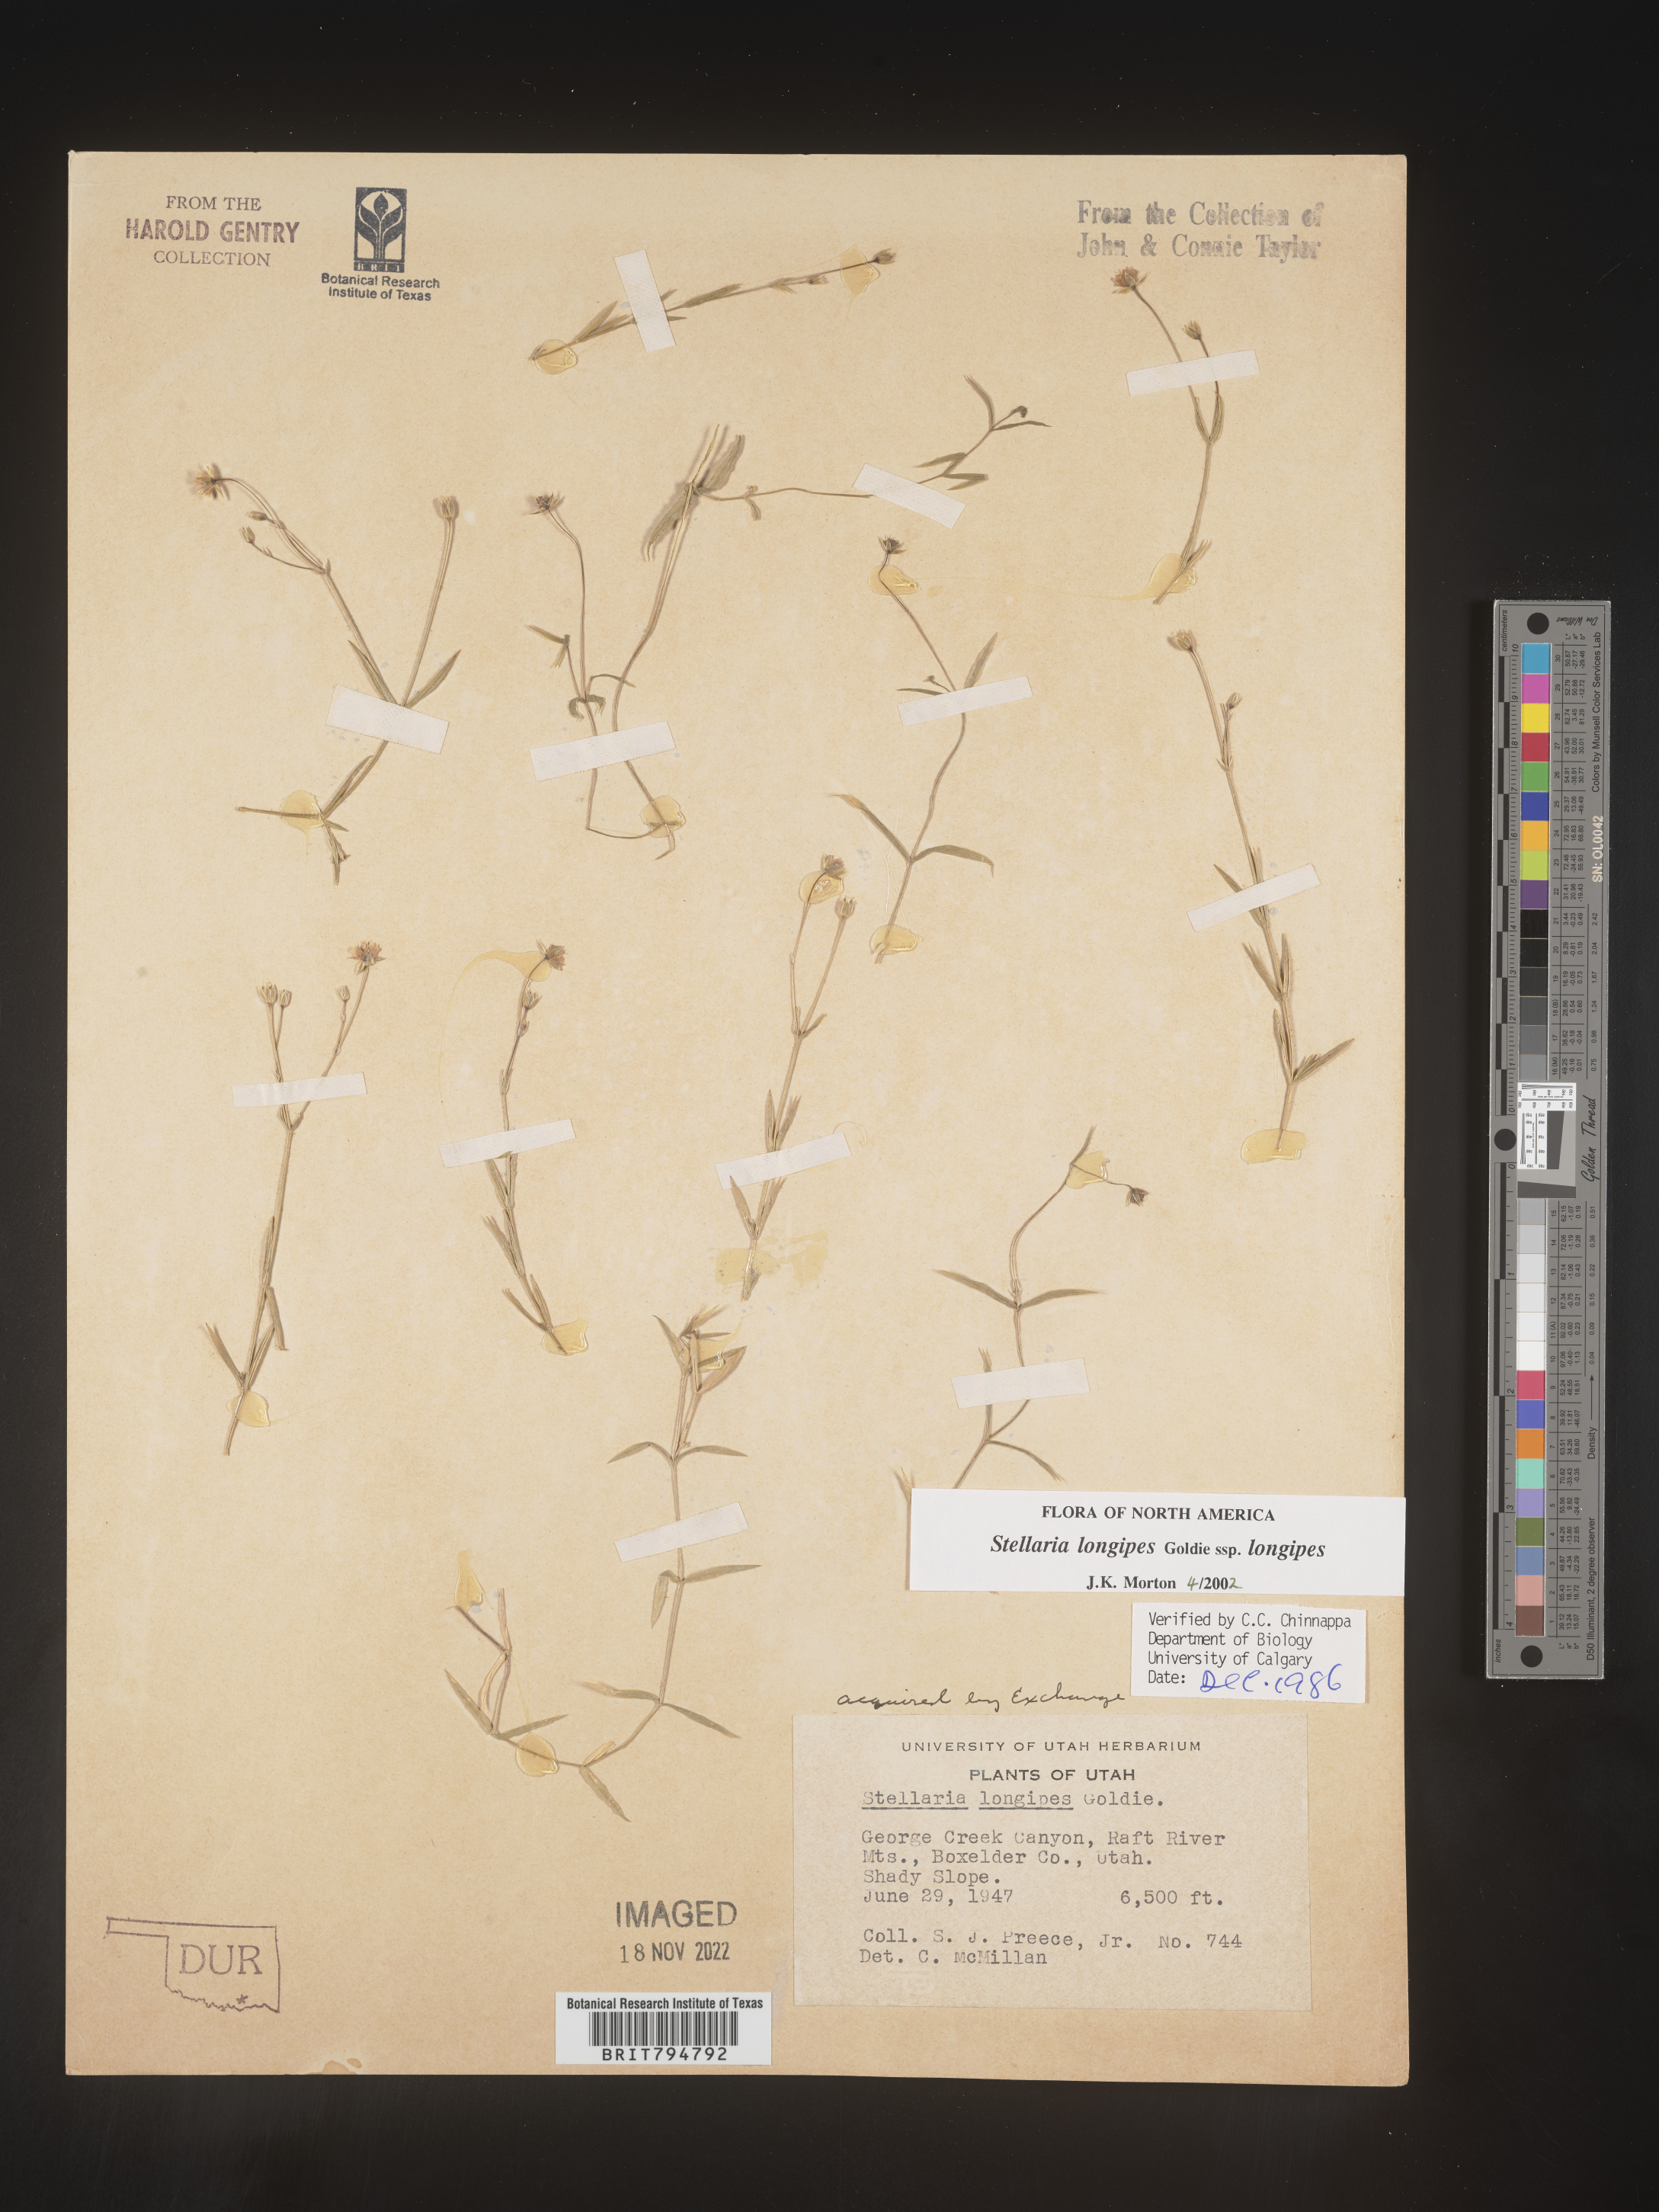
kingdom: Plantae
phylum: Tracheophyta
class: Magnoliopsida
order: Caryophyllales
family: Caryophyllaceae
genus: Stellaria
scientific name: Stellaria longipes
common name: Goldie's starwort
